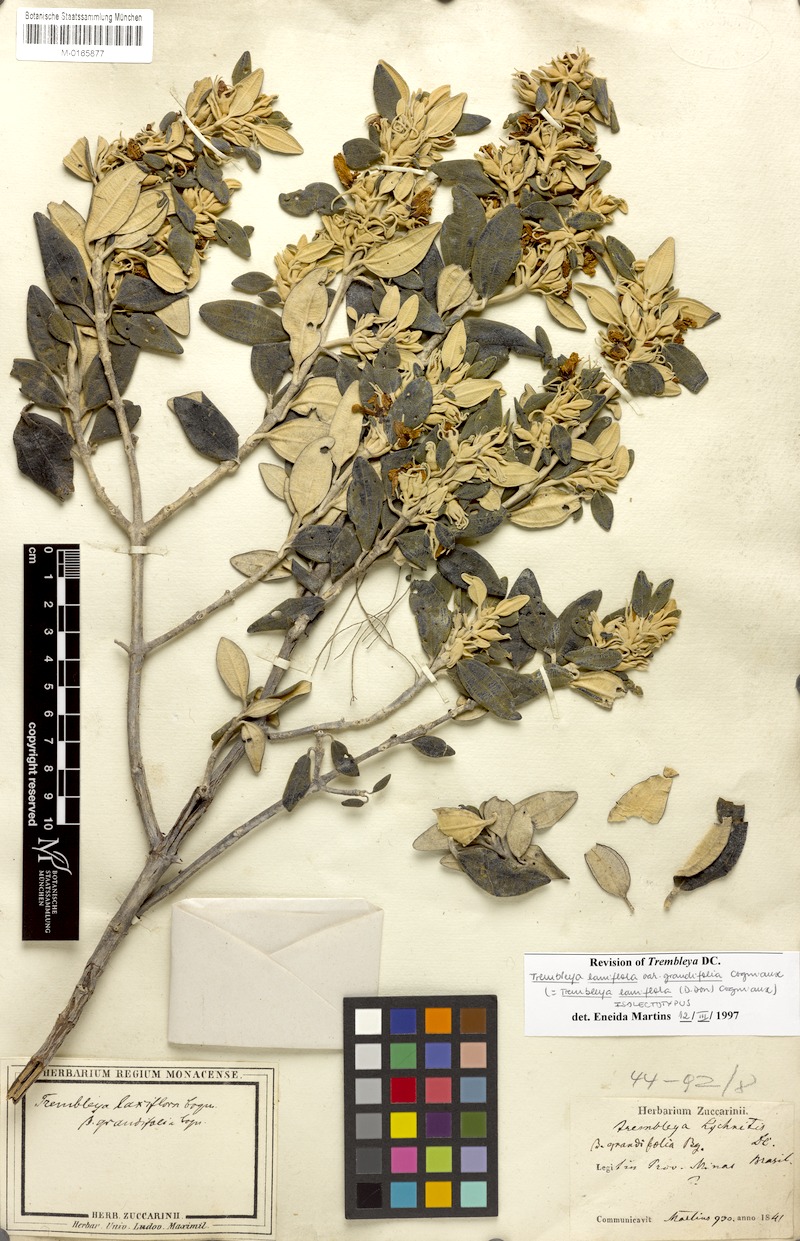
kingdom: Plantae
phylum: Tracheophyta
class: Magnoliopsida
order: Myrtales
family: Melastomataceae
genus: Microlicia
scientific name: Microlicia laniflora
